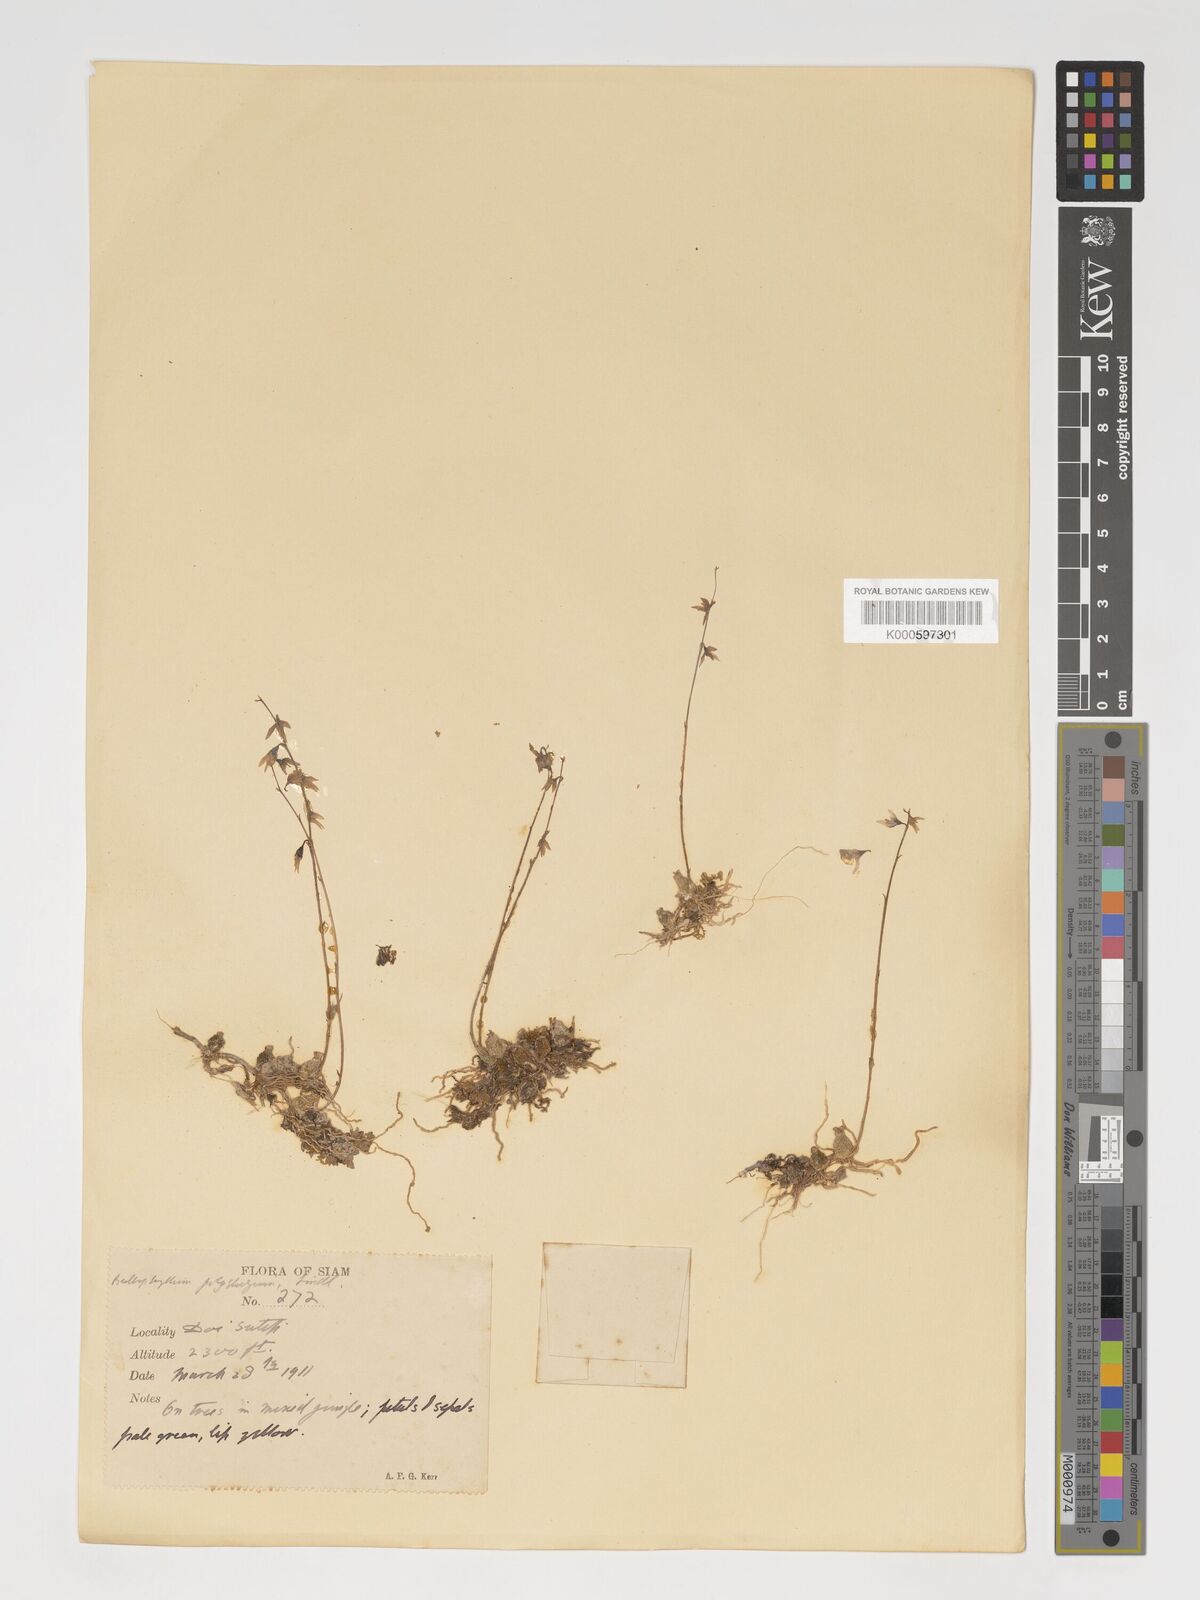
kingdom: Plantae
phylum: Tracheophyta
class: Liliopsida
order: Asparagales
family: Orchidaceae
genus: Bulbophyllum
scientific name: Bulbophyllum polyrrhizum
